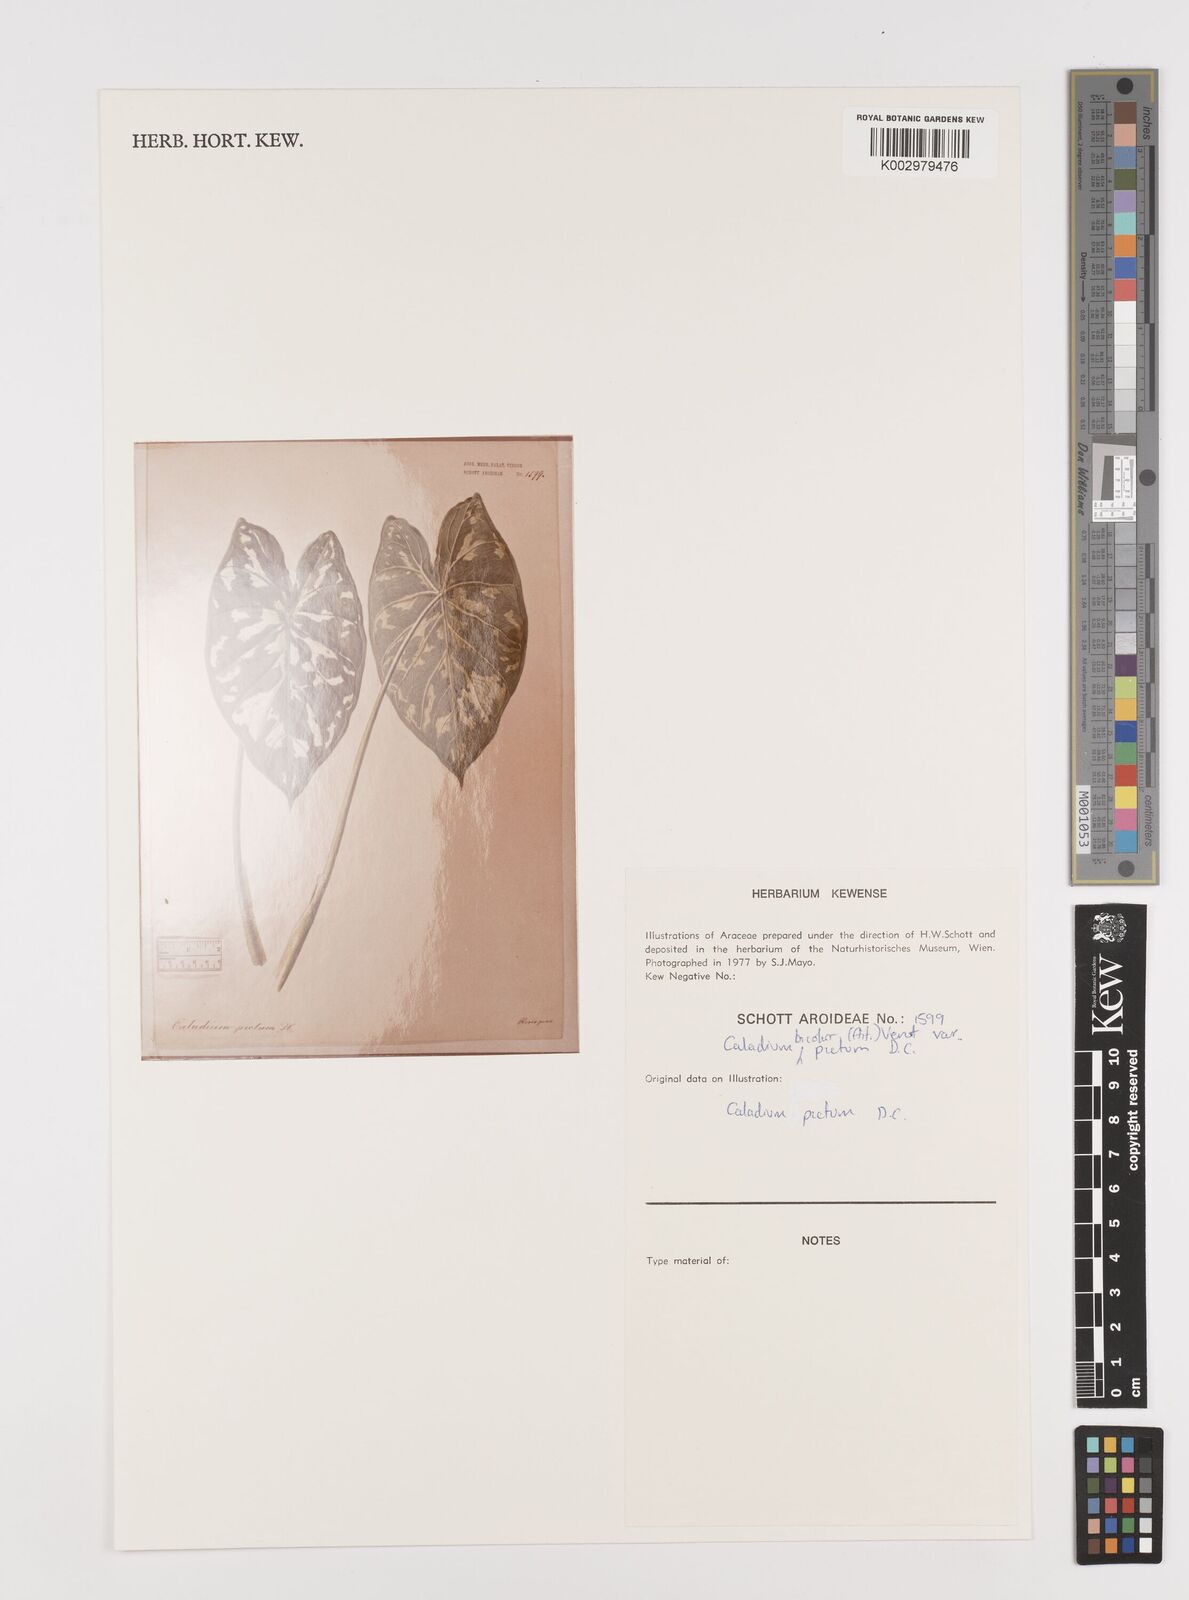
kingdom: Plantae
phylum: Tracheophyta
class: Liliopsida
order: Alismatales
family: Araceae
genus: Caladium
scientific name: Caladium bicolor
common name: Artist's pallet
